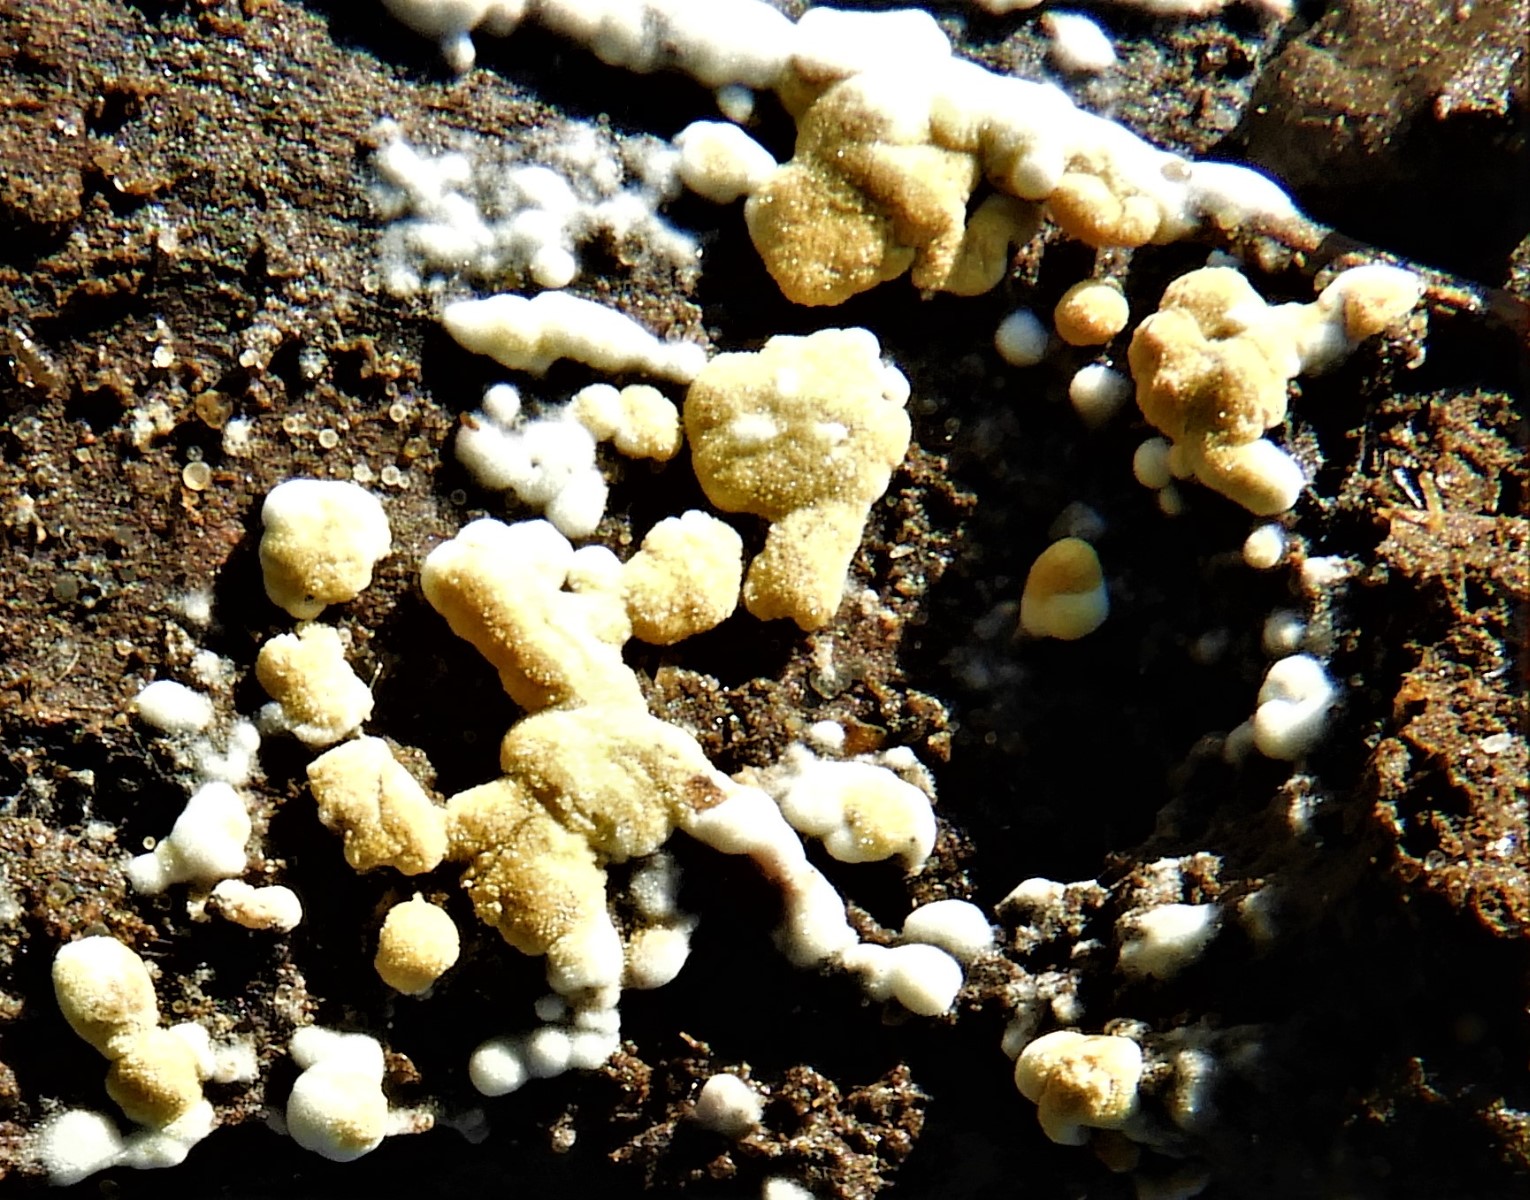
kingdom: Fungi
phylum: Basidiomycota
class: Agaricomycetes
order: Cantharellales
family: Botryobasidiaceae
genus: Botryobasidium
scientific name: Botryobasidium aureum
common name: gylden spindhinde
